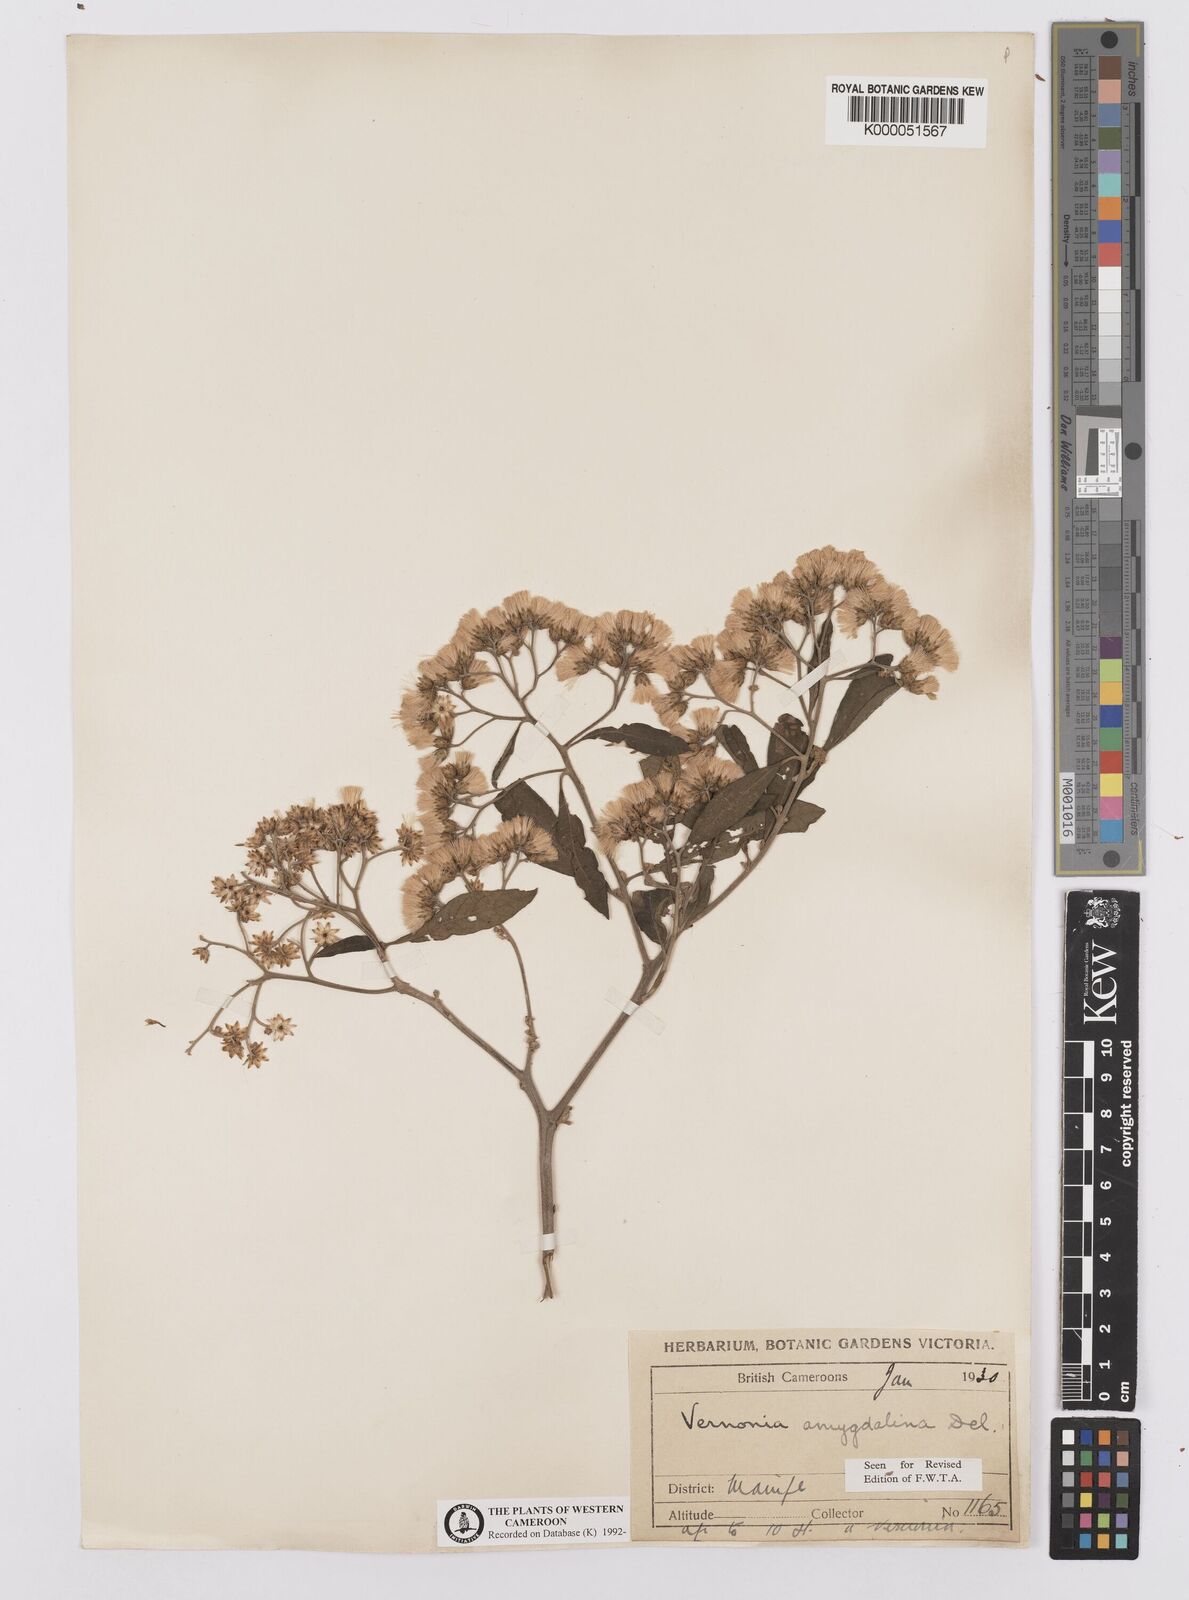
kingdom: Plantae
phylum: Tracheophyta
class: Magnoliopsida
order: Asterales
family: Asteraceae
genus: Gymnanthemum
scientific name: Gymnanthemum amygdalinum
